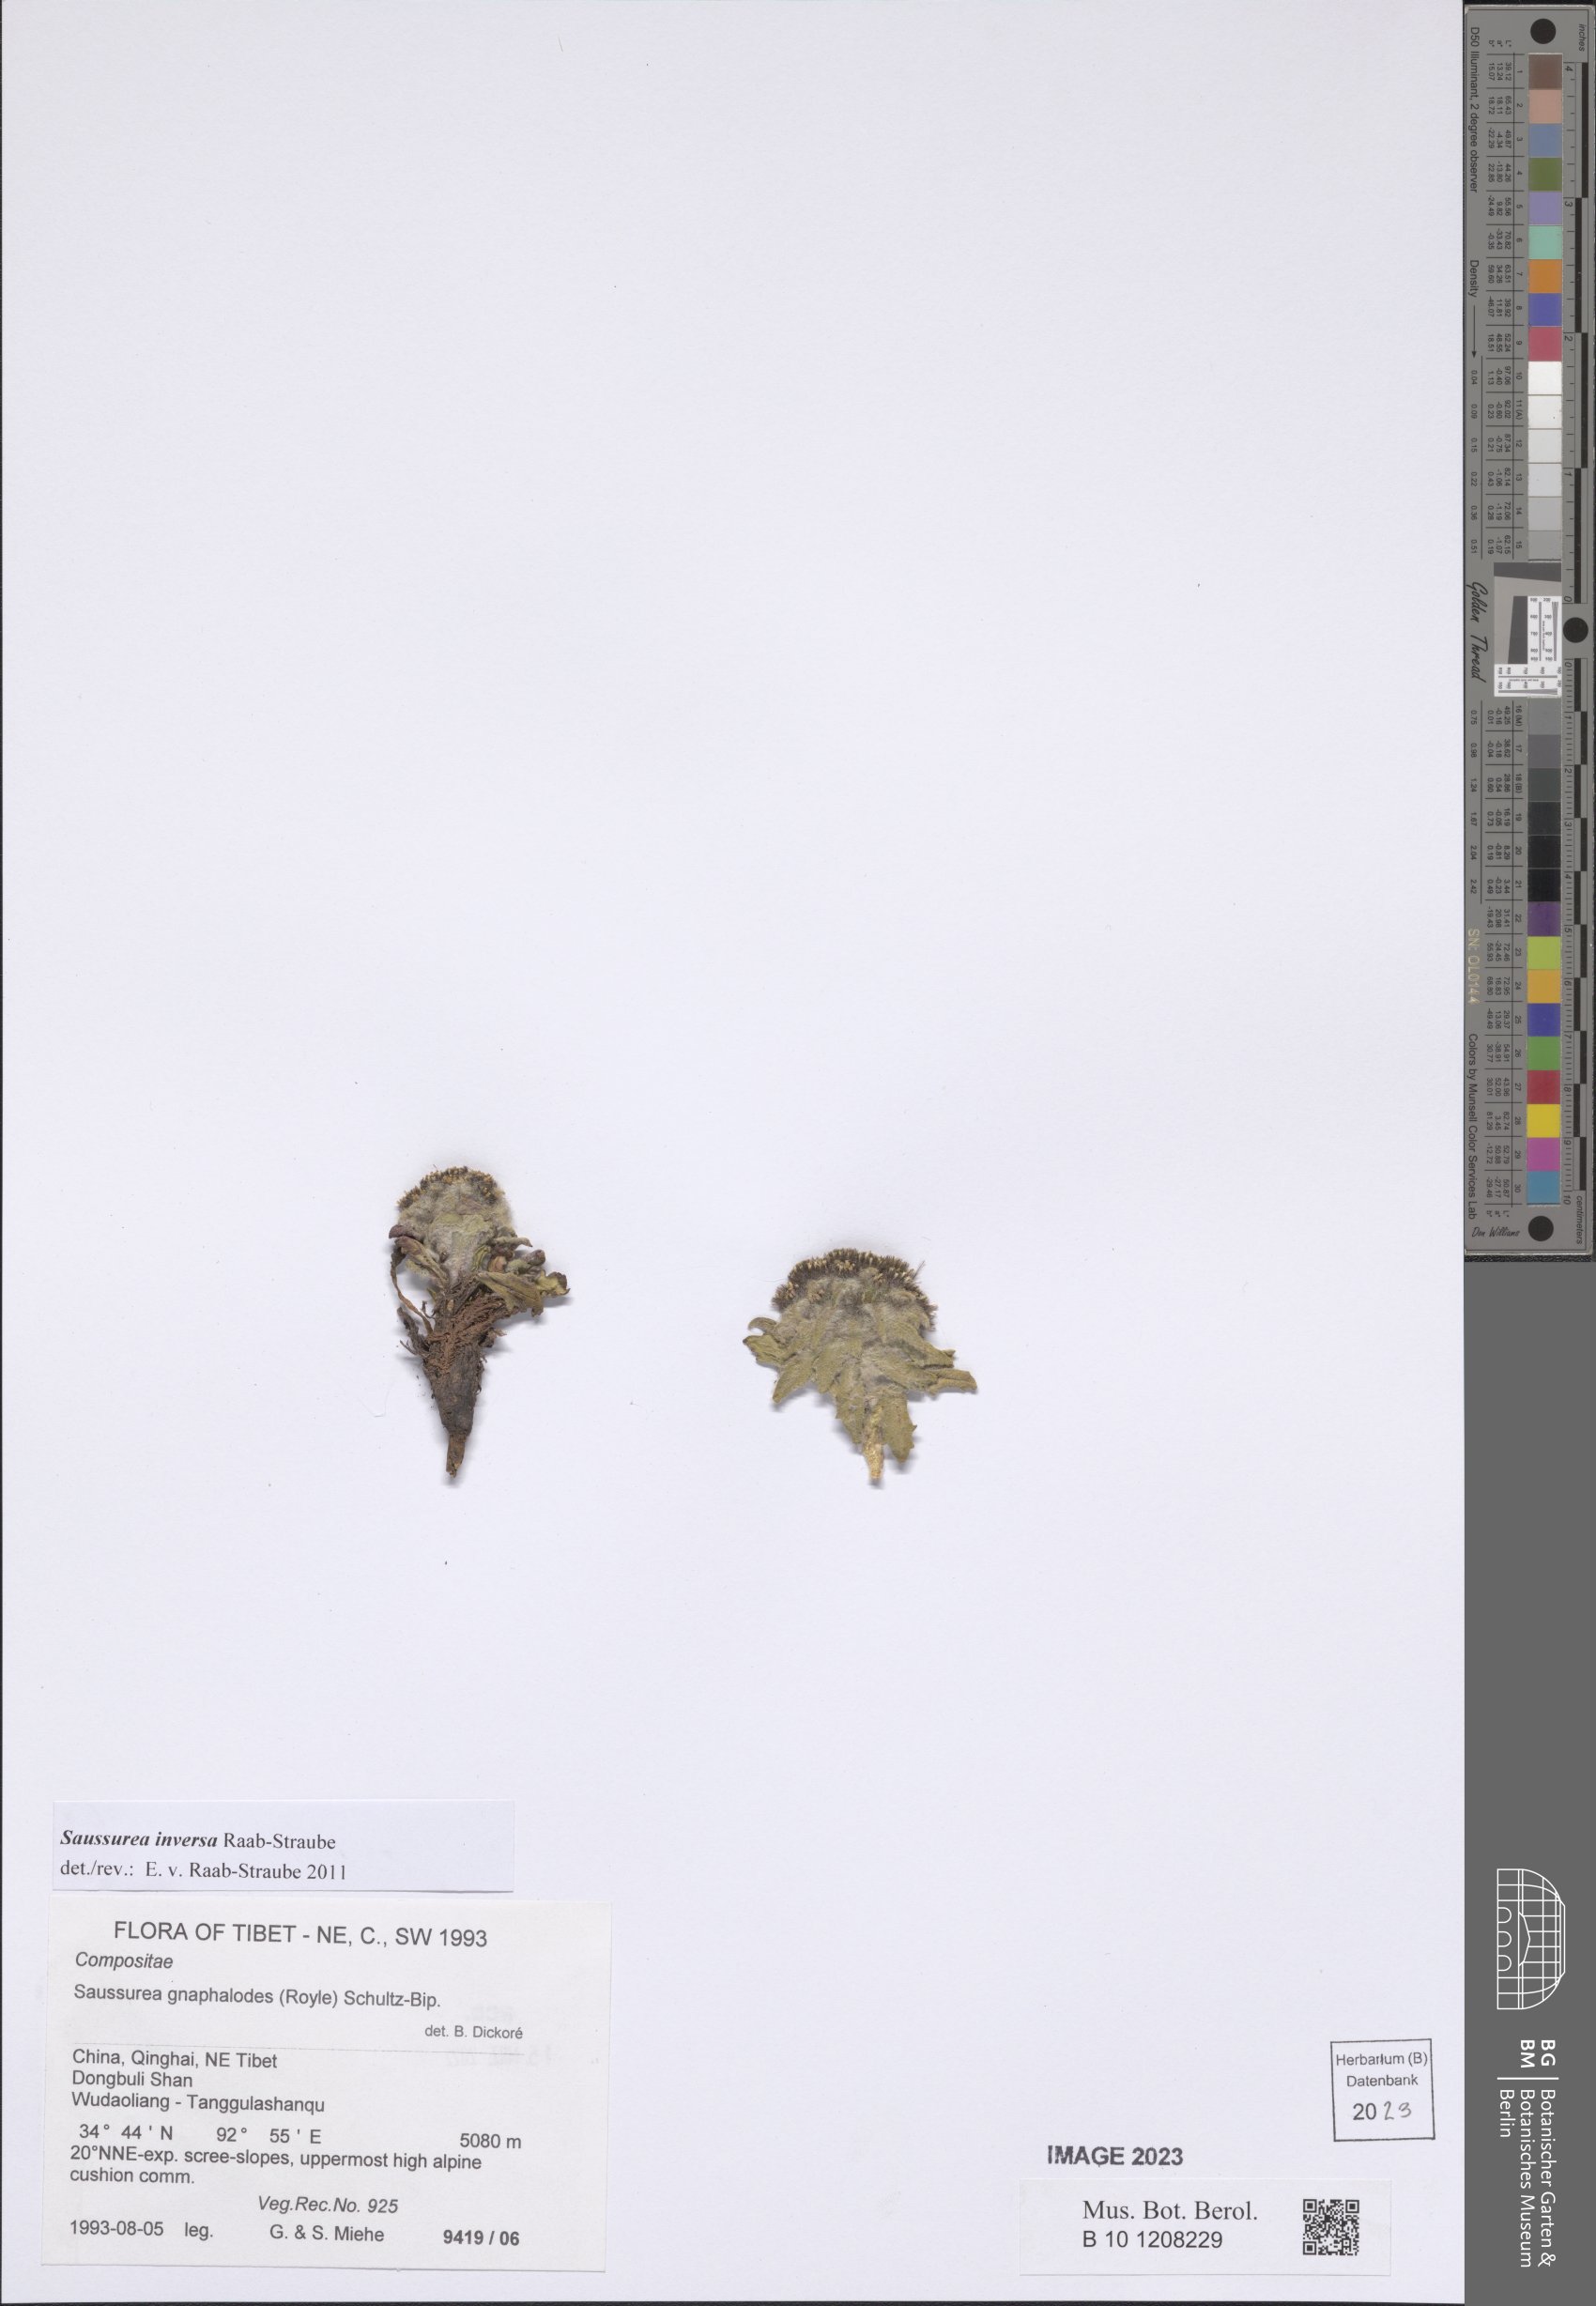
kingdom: Plantae
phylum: Tracheophyta
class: Magnoliopsida
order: Asterales
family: Asteraceae
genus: Saussurea
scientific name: Saussurea inversa
